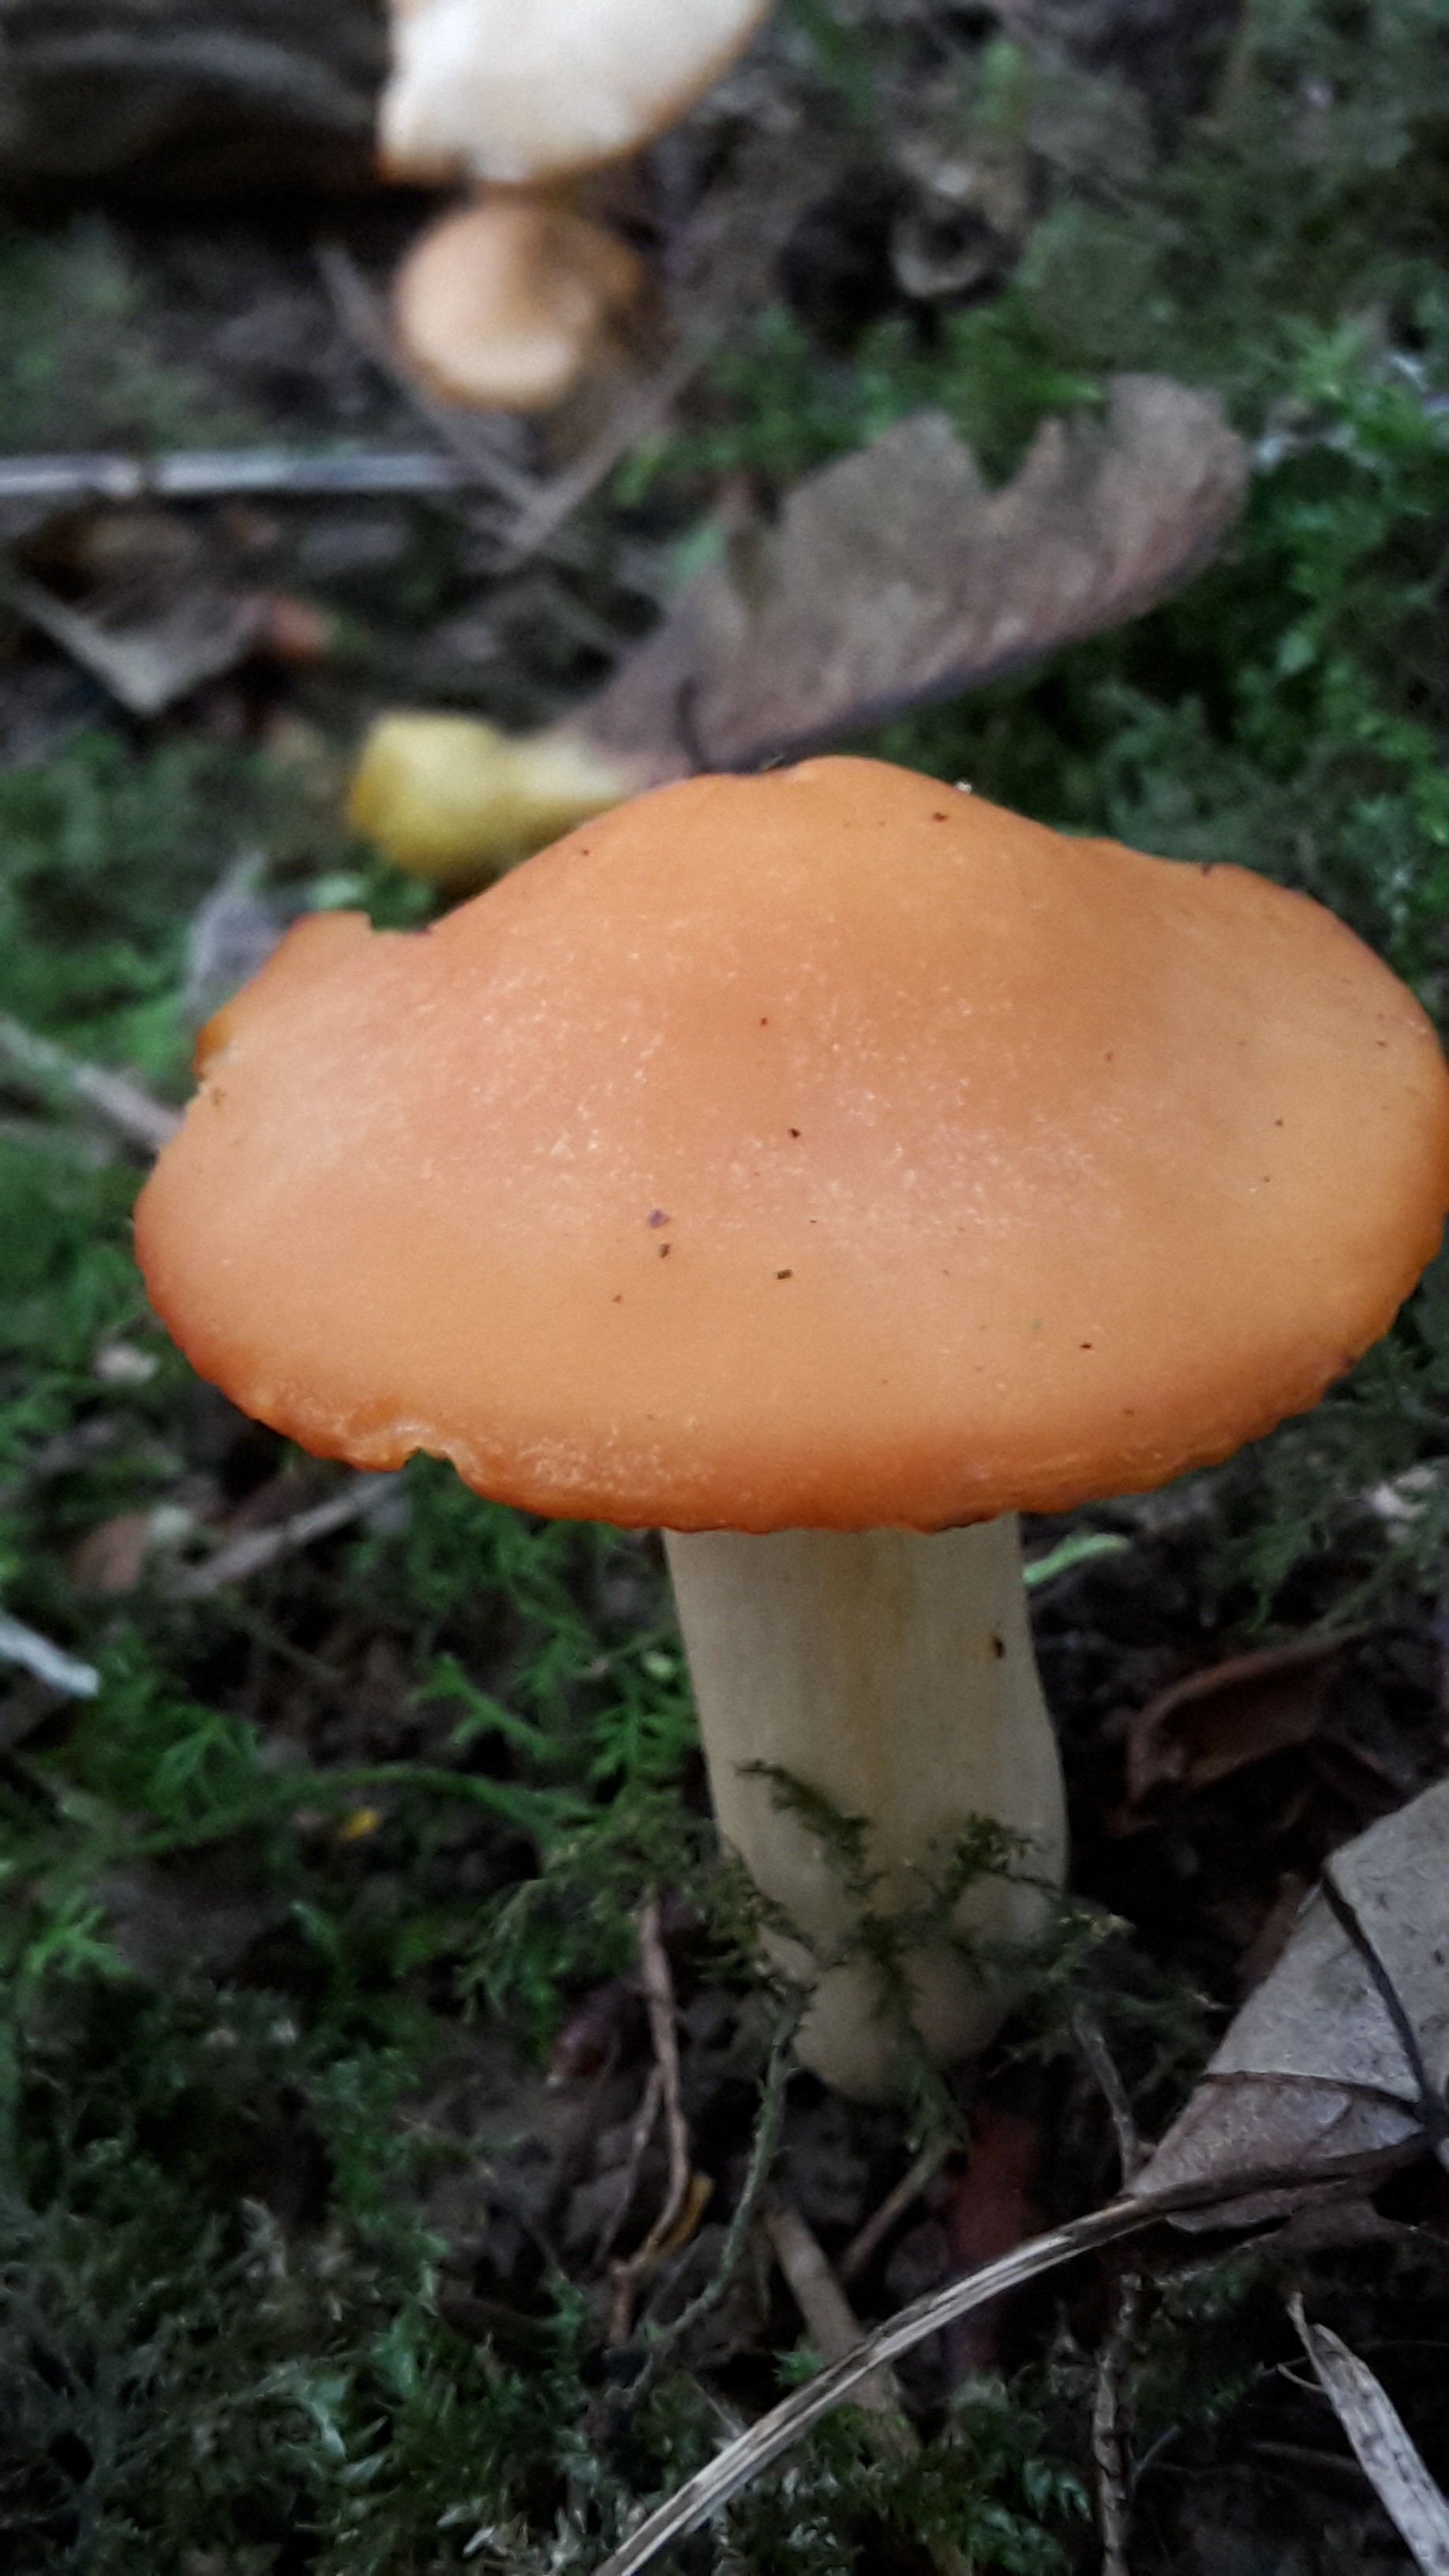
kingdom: Fungi
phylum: Basidiomycota
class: Agaricomycetes
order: Agaricales
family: Hygrophoraceae
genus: Cuphophyllus
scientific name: Cuphophyllus pratensis
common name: eng-vokshat
